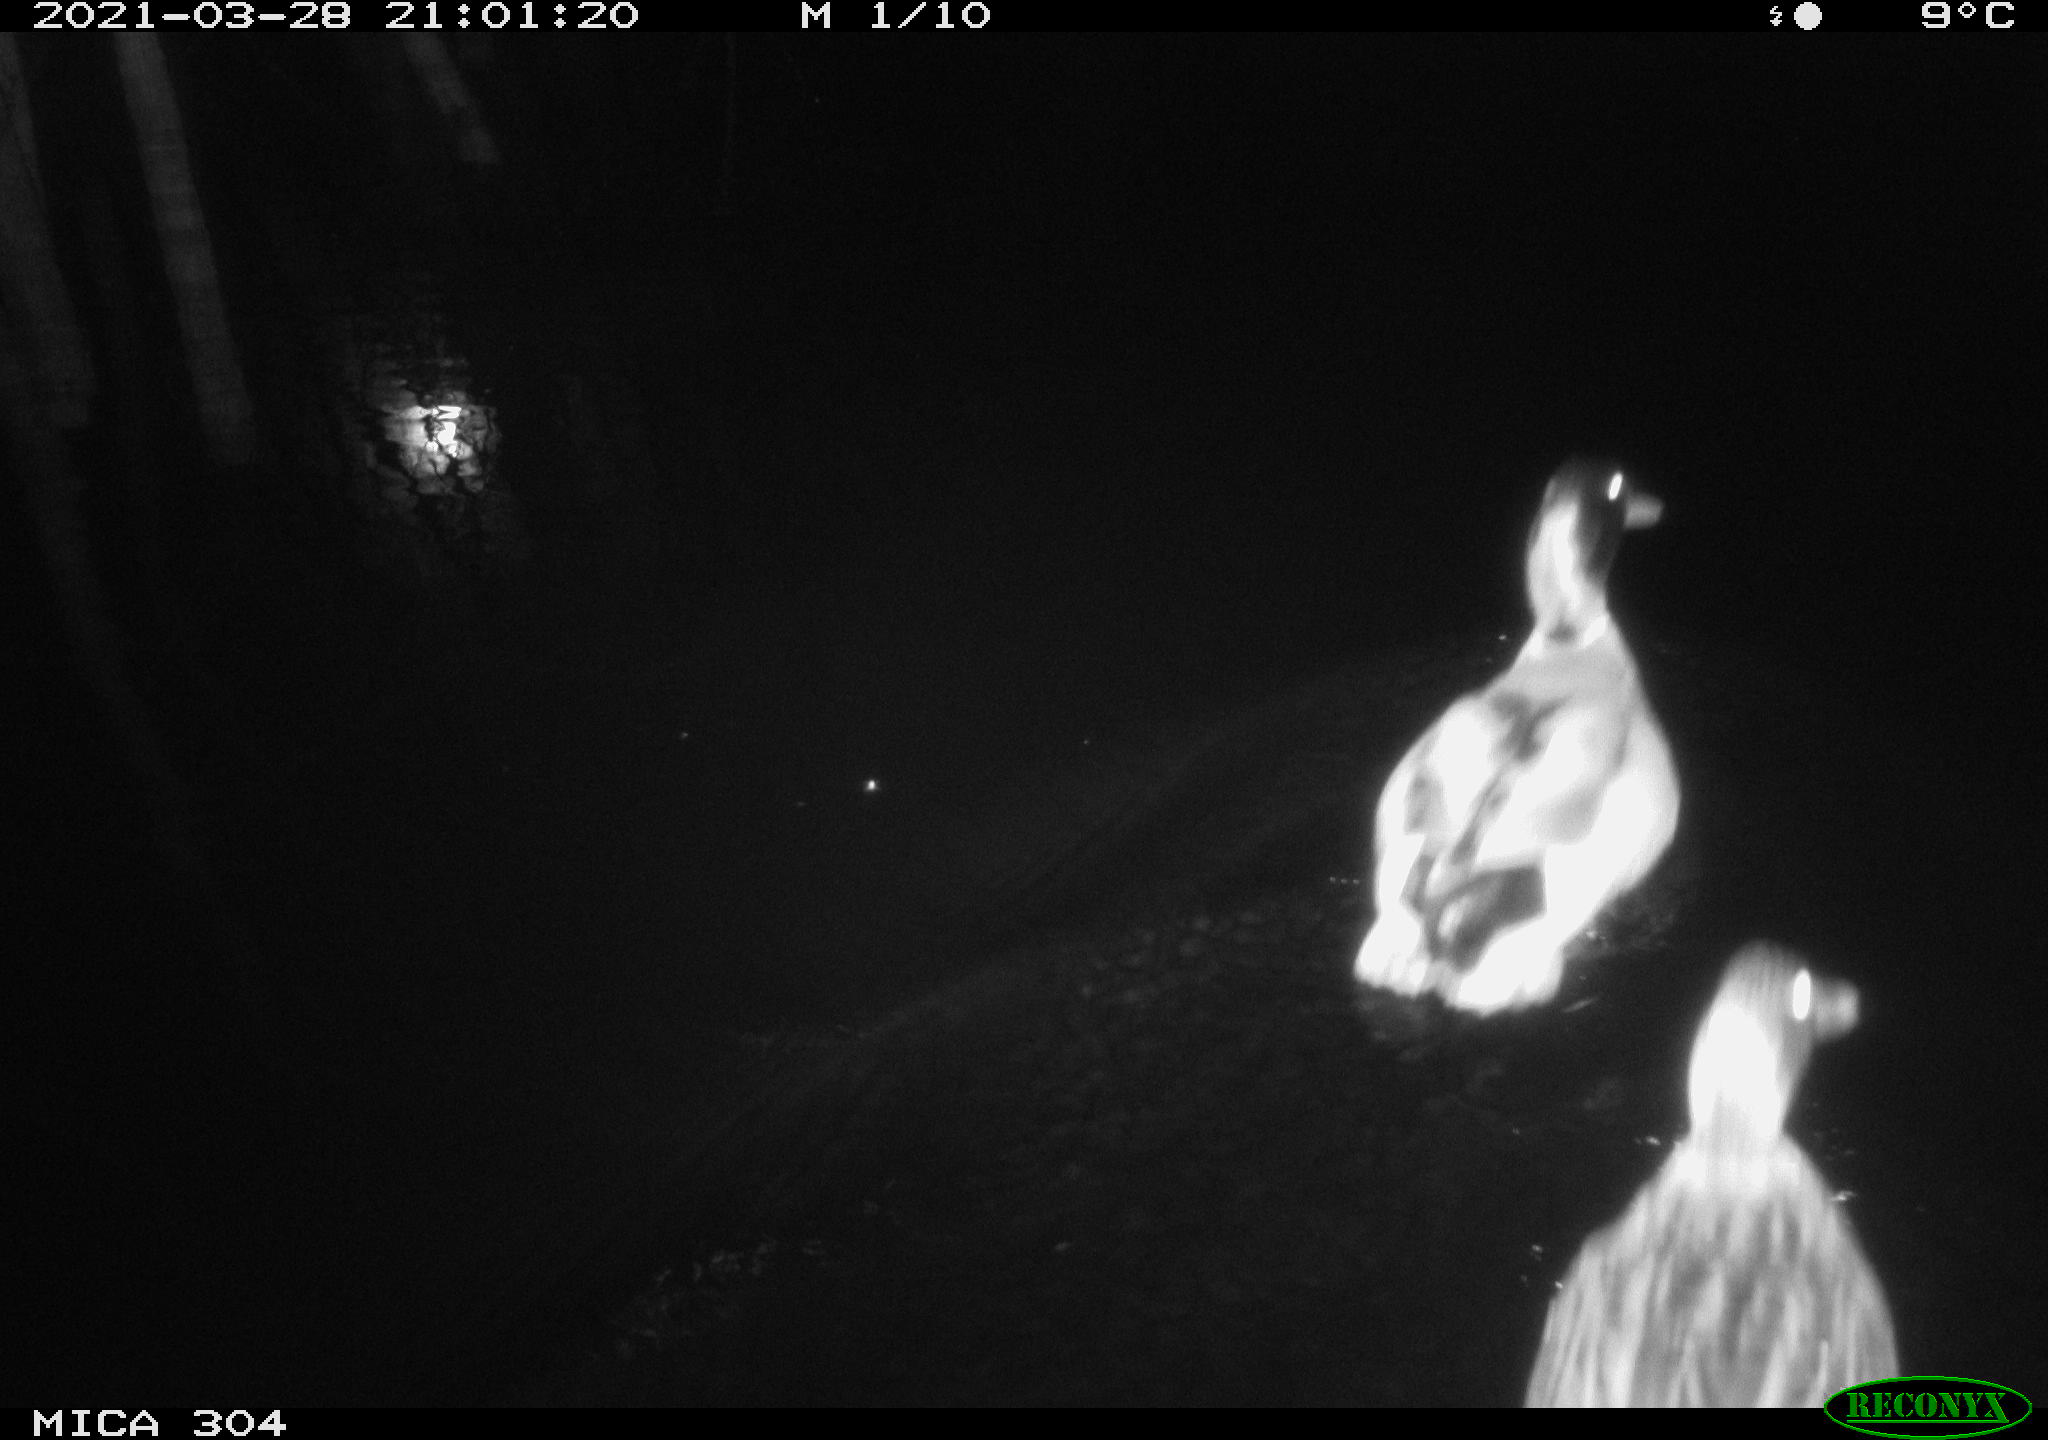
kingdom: Animalia
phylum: Chordata
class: Aves
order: Anseriformes
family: Anatidae
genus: Anas
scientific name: Anas platyrhynchos
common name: Mallard
